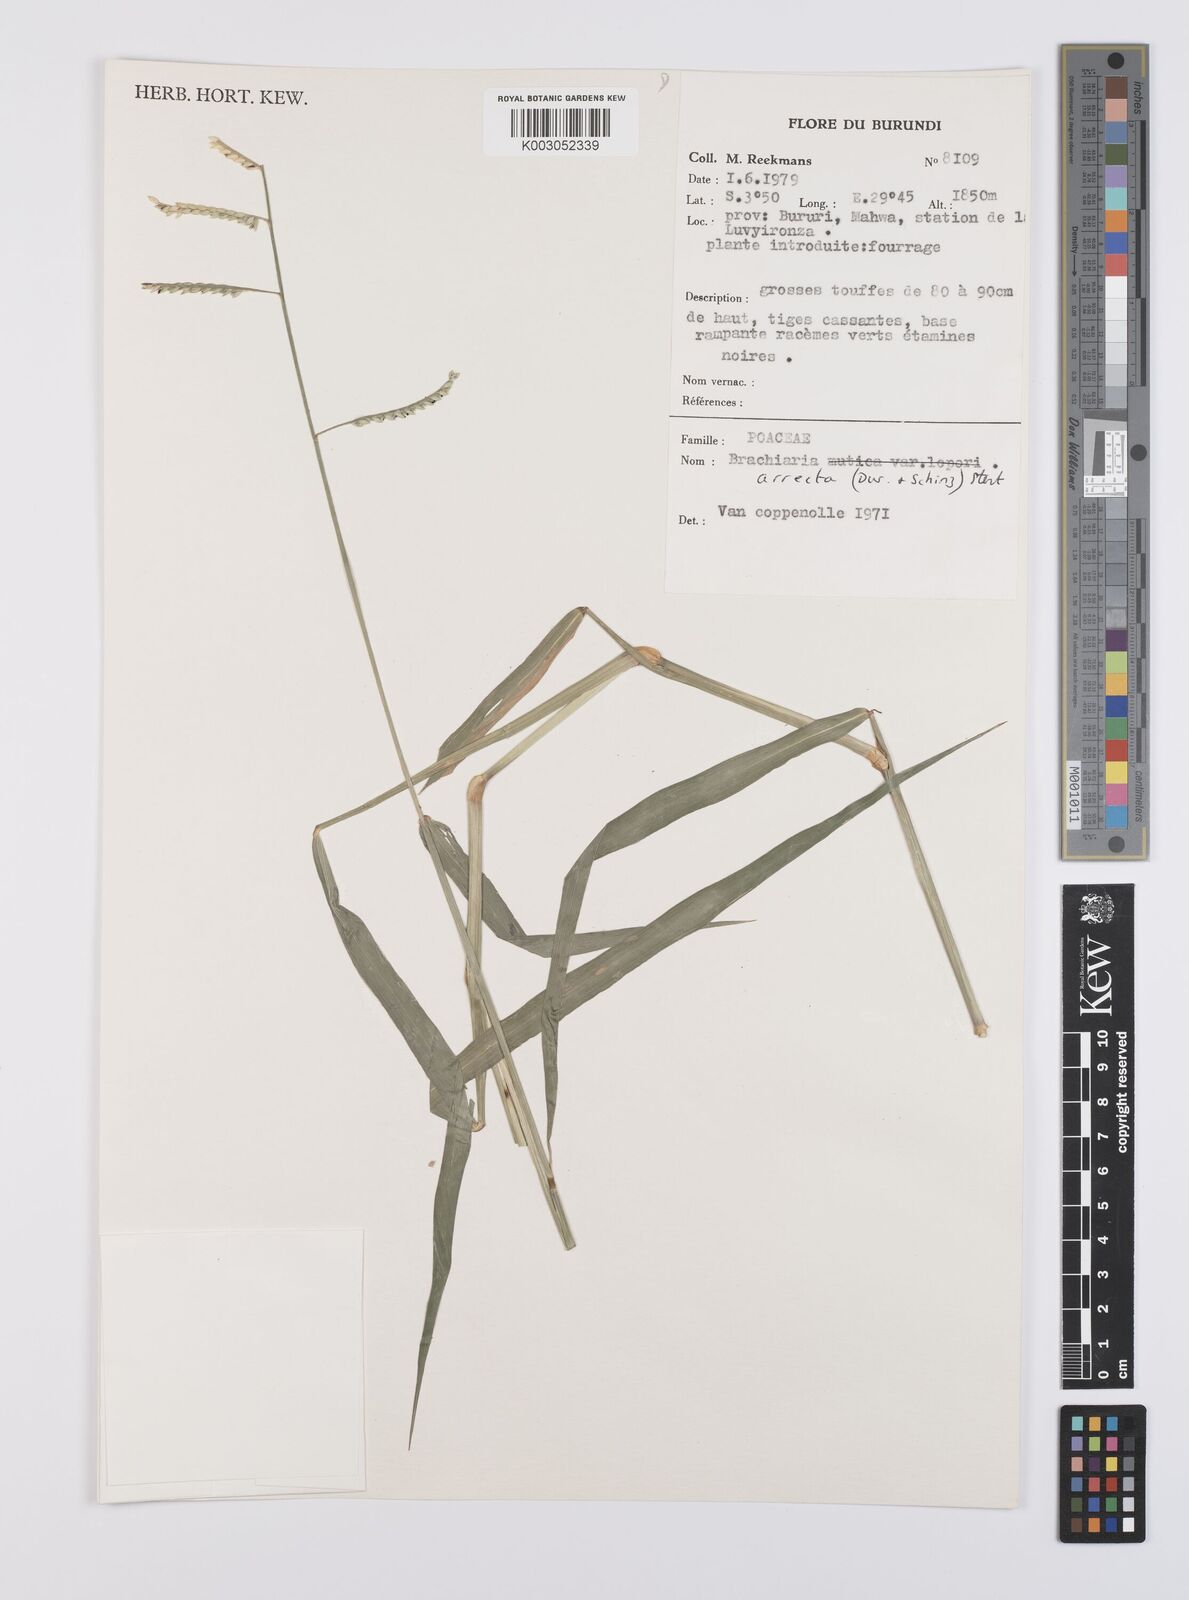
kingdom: Plantae
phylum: Tracheophyta
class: Liliopsida
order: Poales
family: Poaceae
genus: Urochloa
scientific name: Urochloa arrecta
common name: African signalgrass
